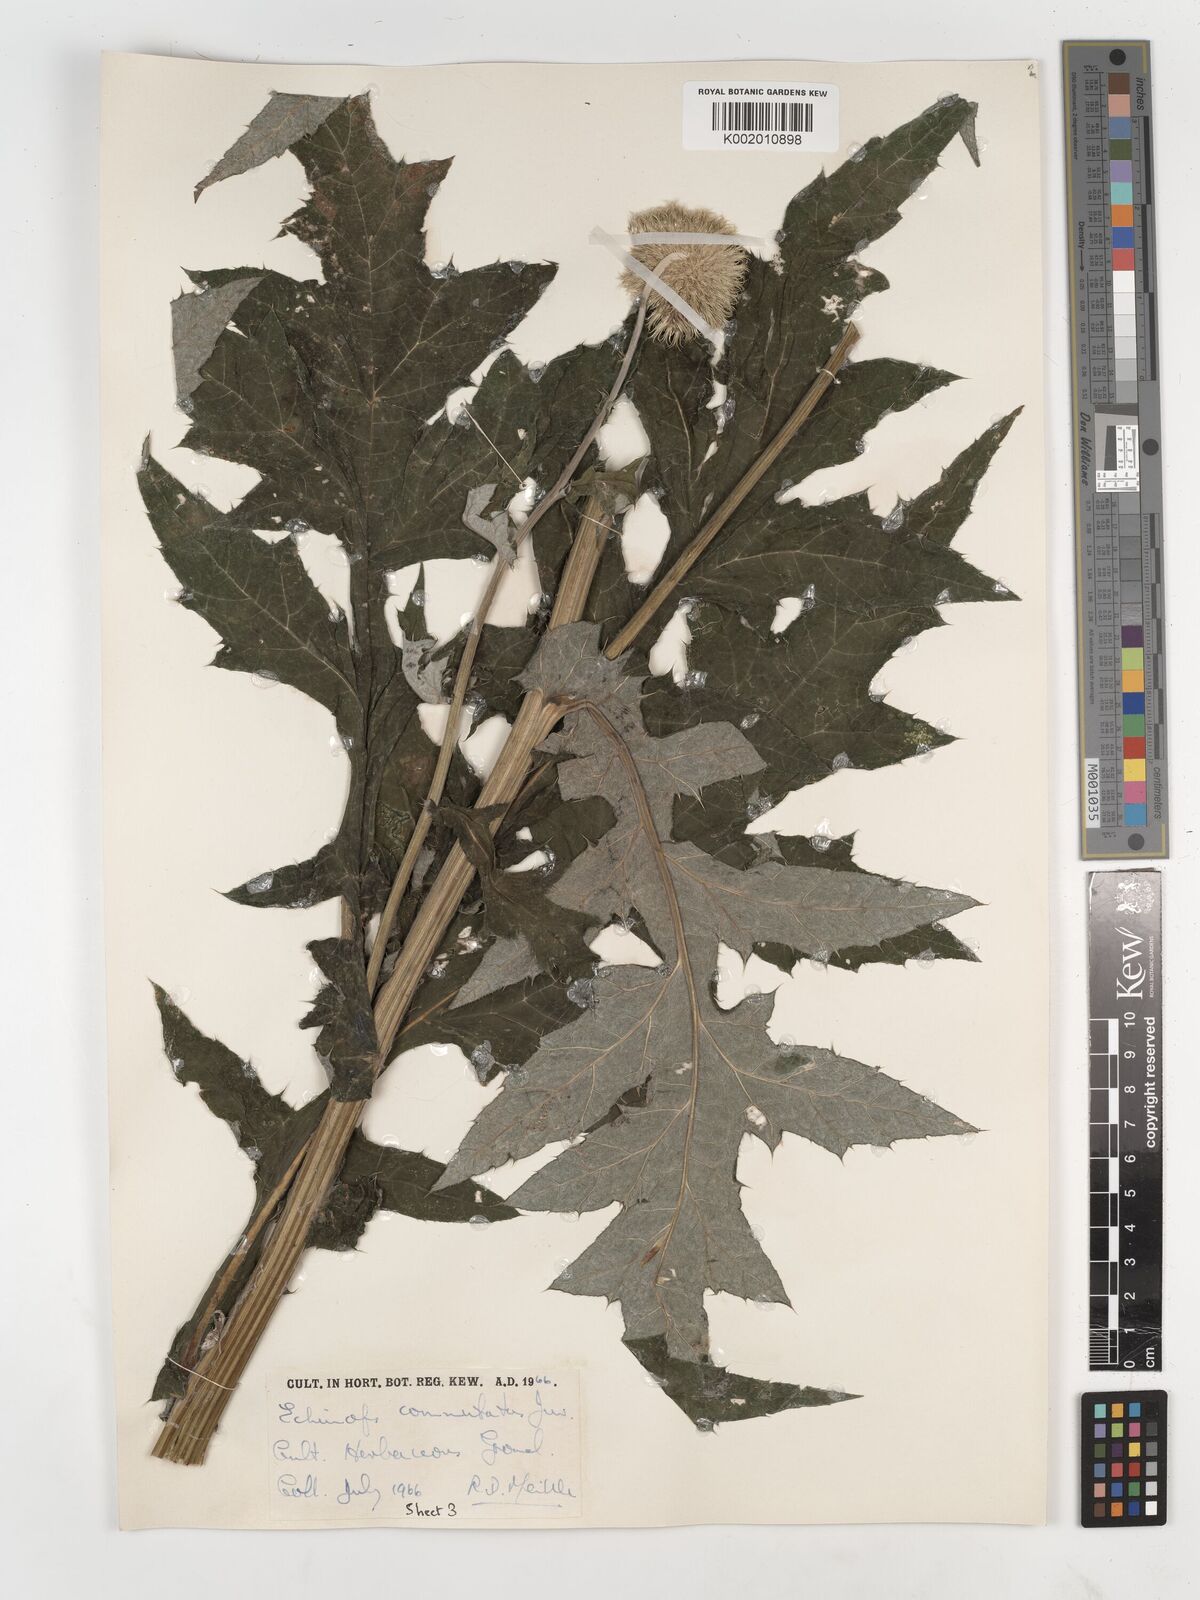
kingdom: Plantae
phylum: Tracheophyta
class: Magnoliopsida
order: Asterales
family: Asteraceae
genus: Echinops
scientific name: Echinops
